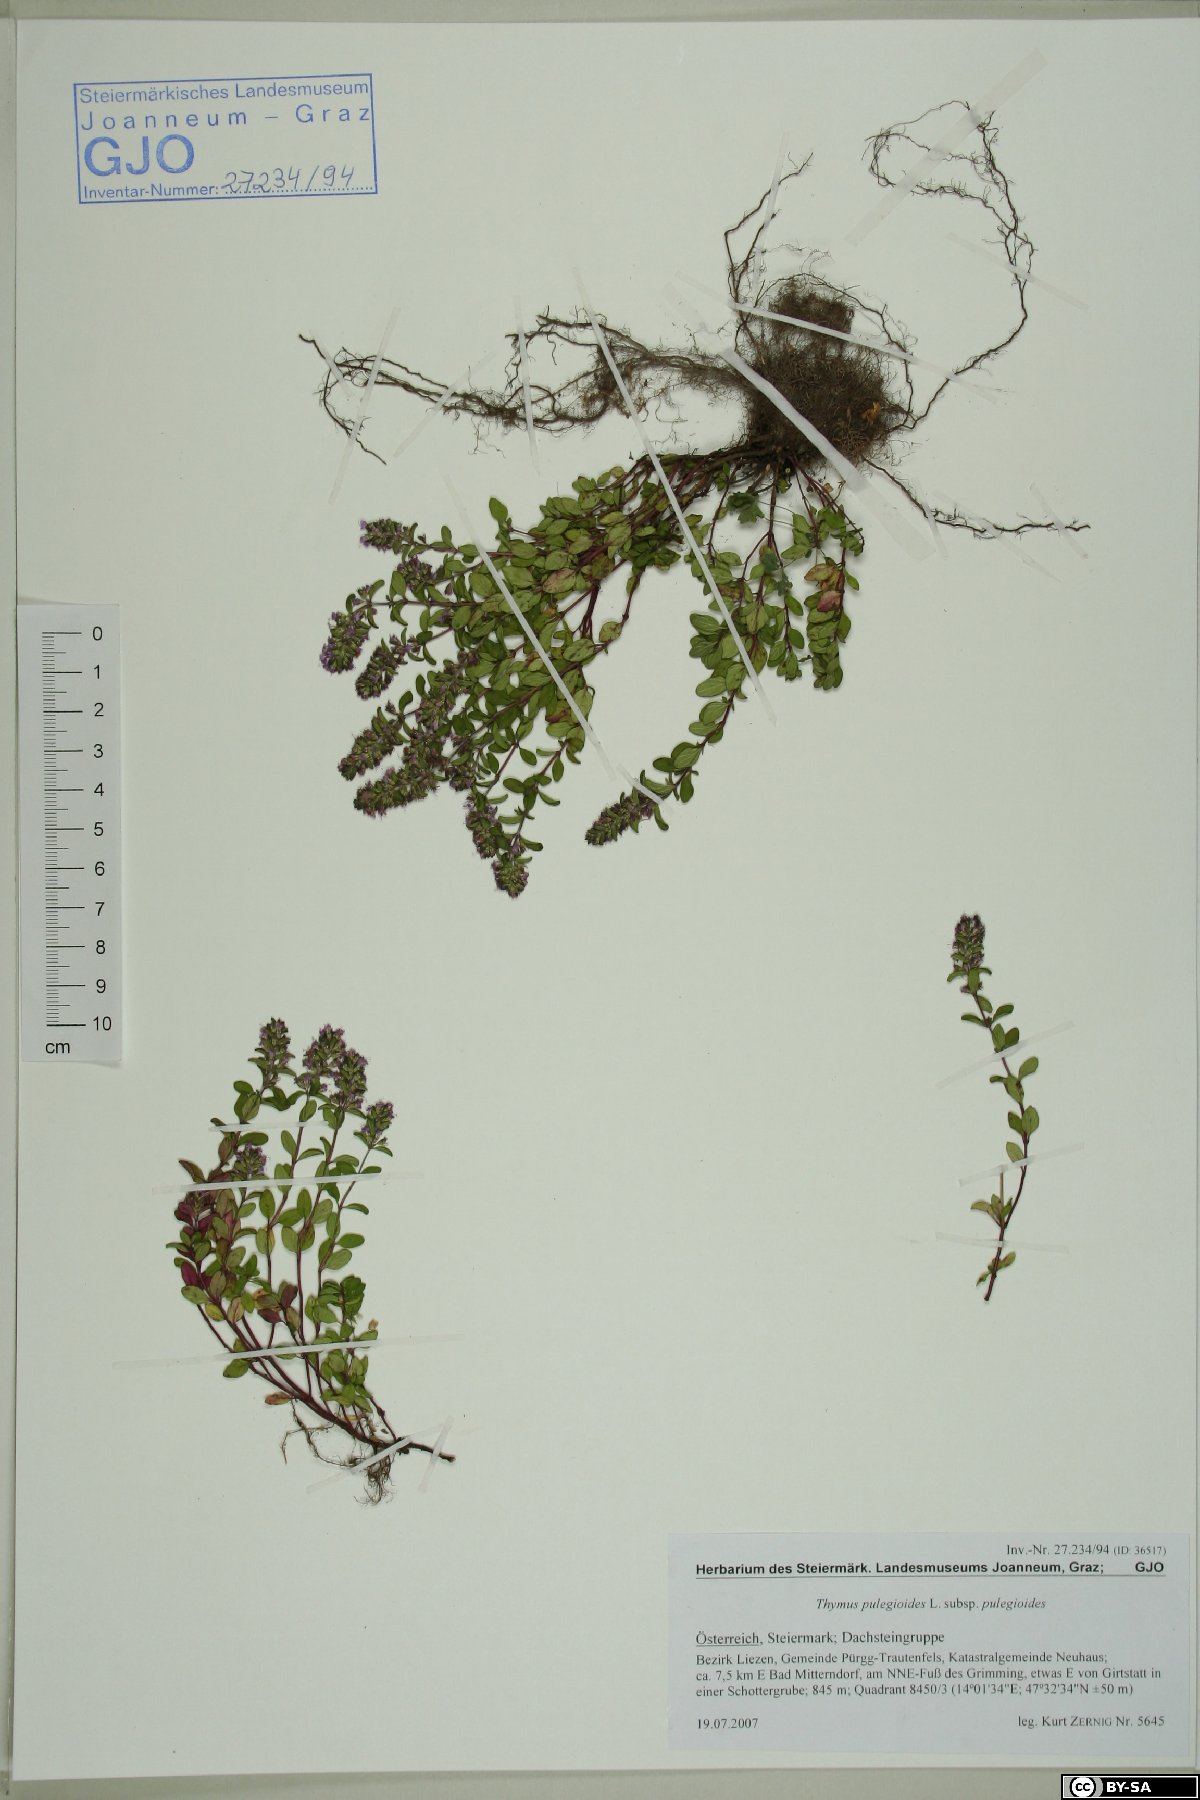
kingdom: Plantae
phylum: Tracheophyta
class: Magnoliopsida
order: Lamiales
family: Lamiaceae
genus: Thymus
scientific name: Thymus pulegioides
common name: Large thyme
